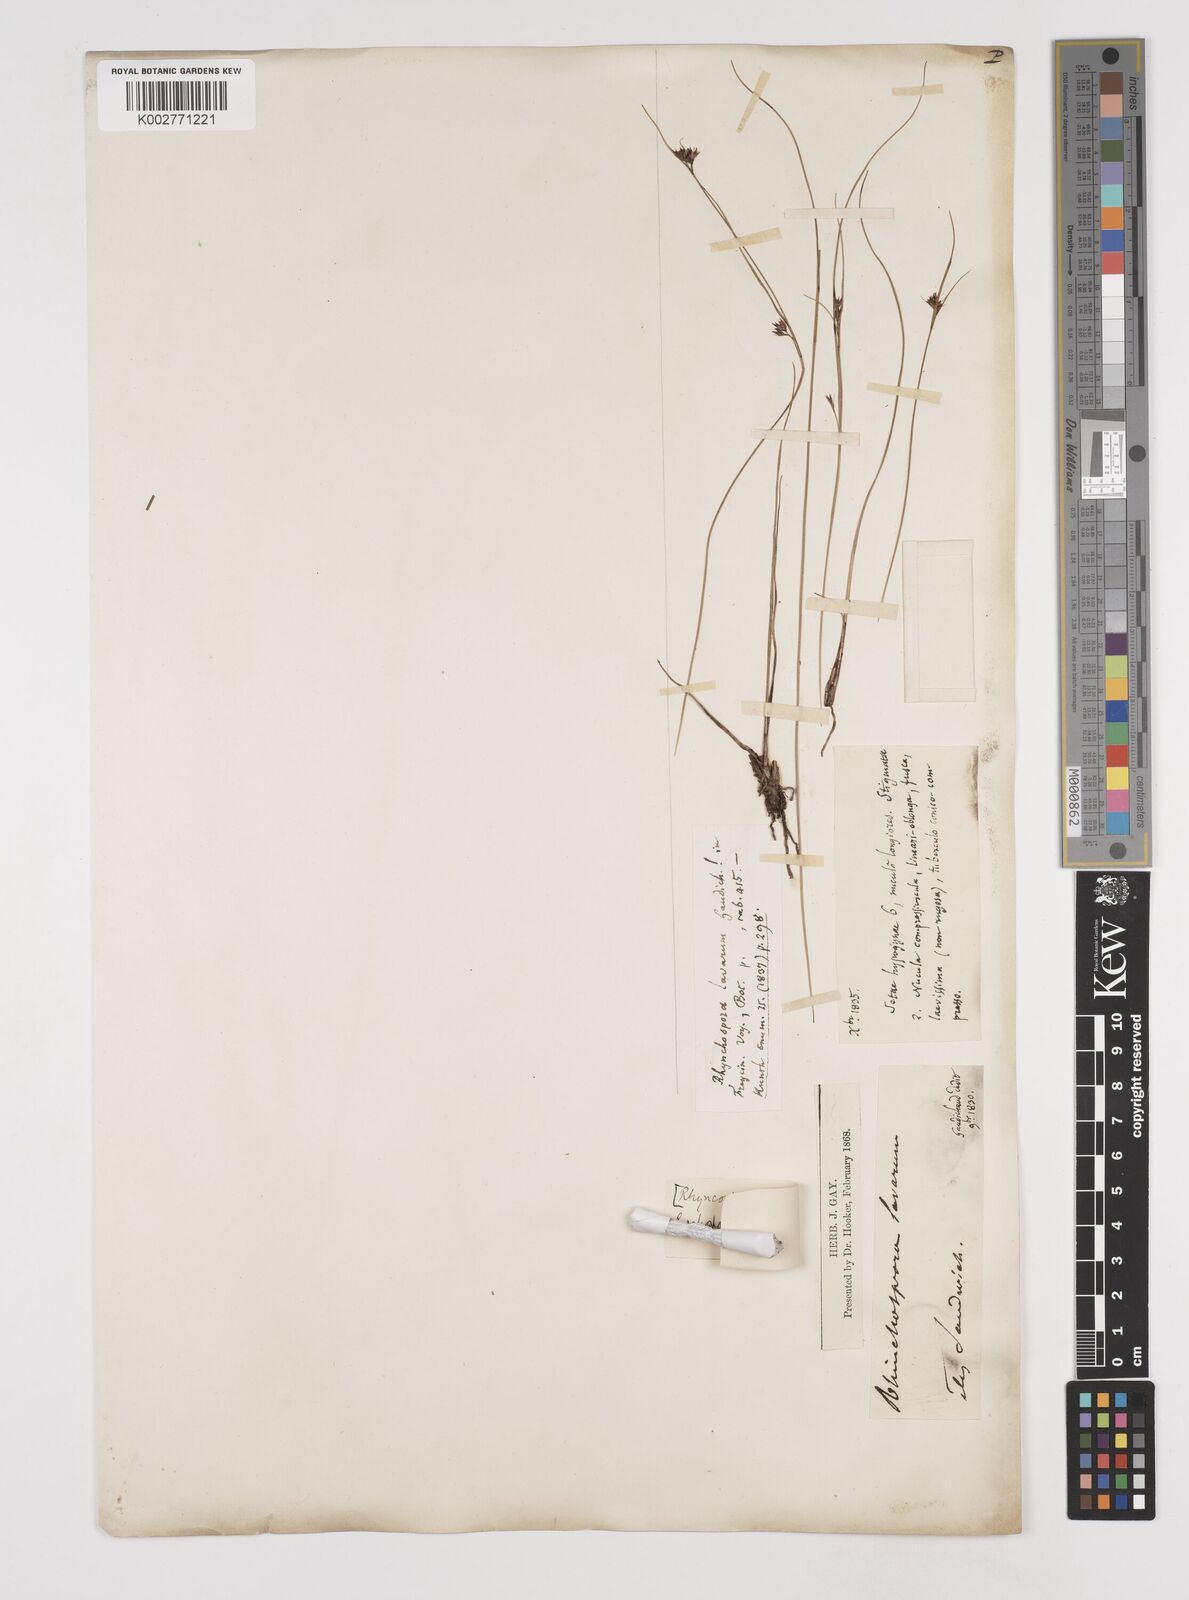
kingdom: Plantae
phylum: Tracheophyta
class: Liliopsida
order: Poales
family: Cyperaceae
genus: Rhynchospora
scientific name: Rhynchospora rugosa
